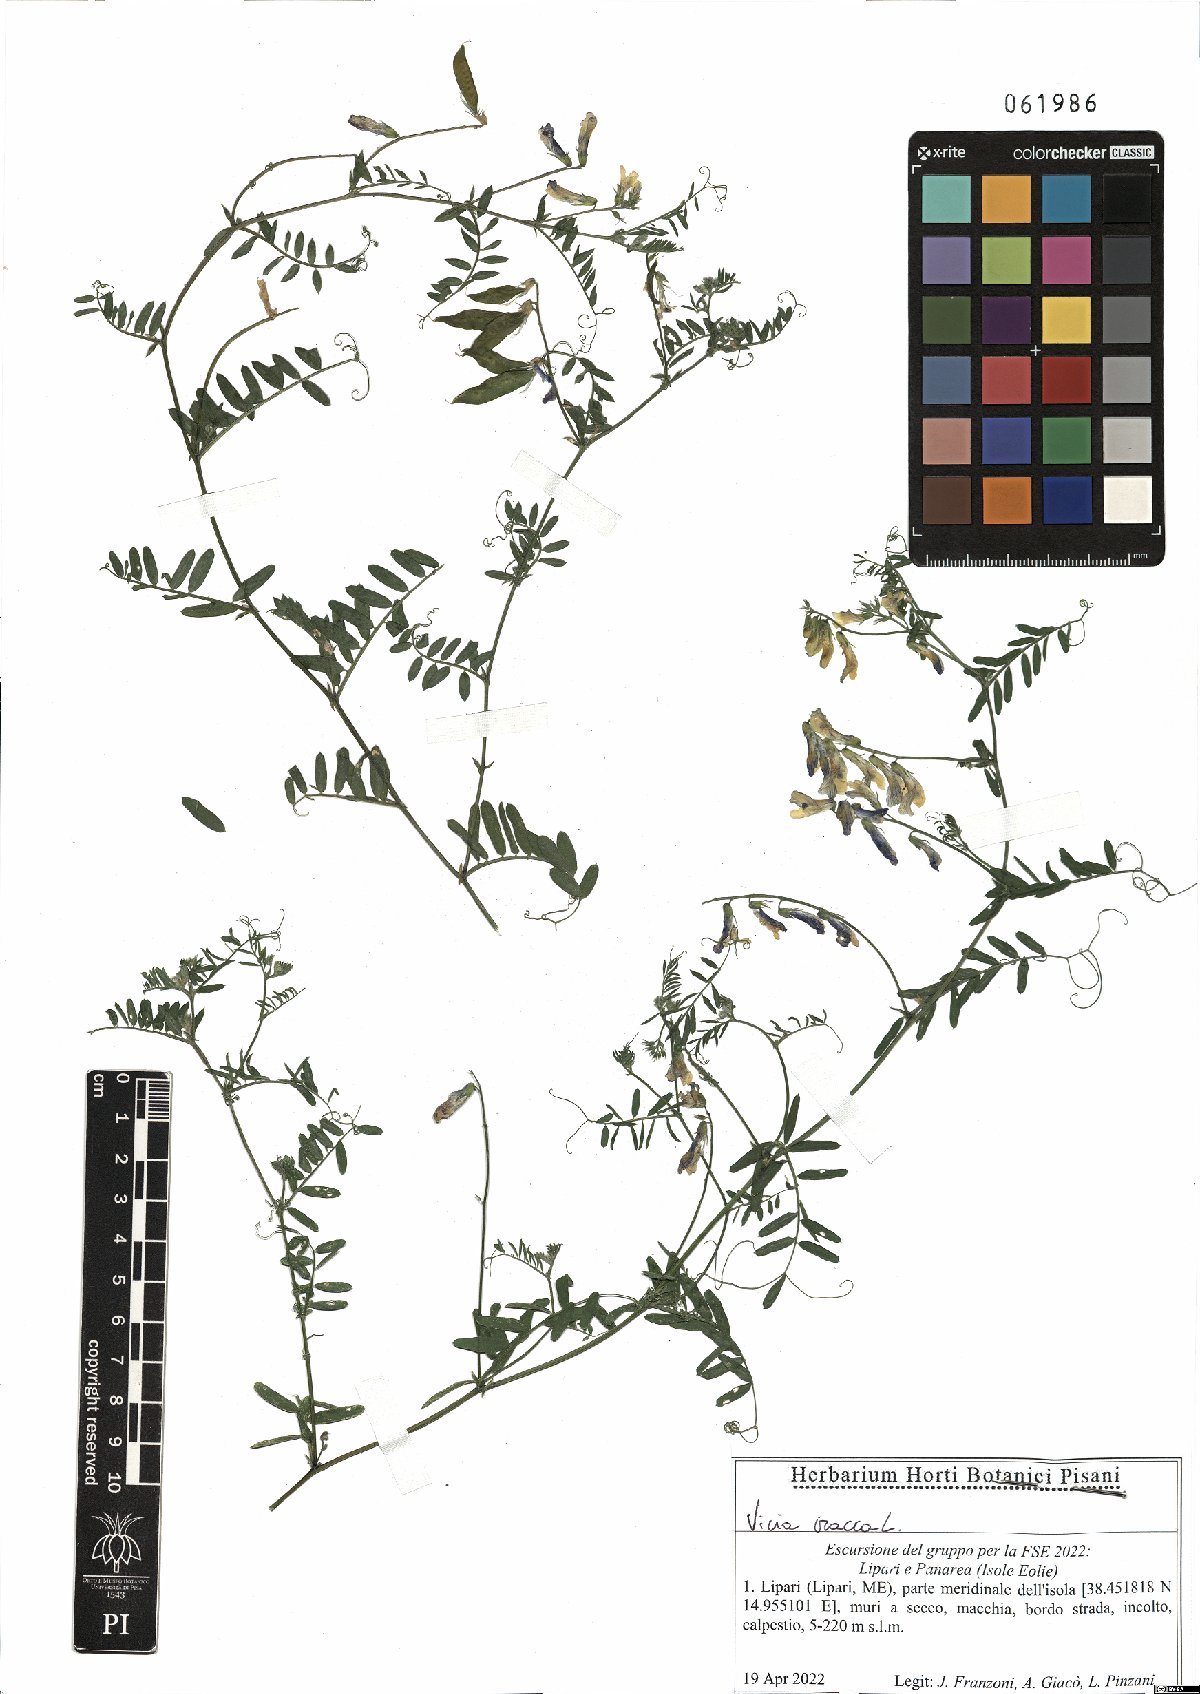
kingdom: Plantae
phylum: Tracheophyta
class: Magnoliopsida
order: Fabales
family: Fabaceae
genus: Vicia
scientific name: Vicia villosa
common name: Fodder vetch
